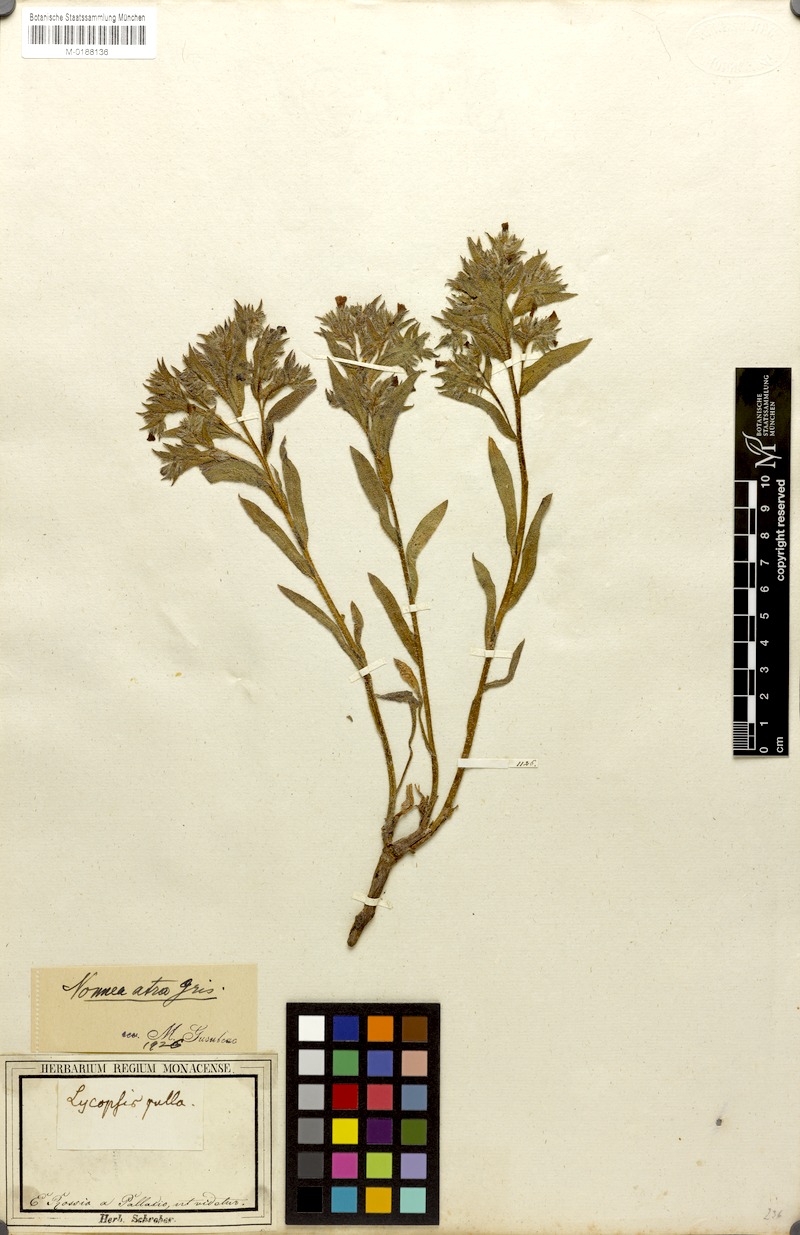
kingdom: Plantae
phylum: Tracheophyta
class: Magnoliopsida
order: Boraginales
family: Boraginaceae
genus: Nonea
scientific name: Nonea atra
